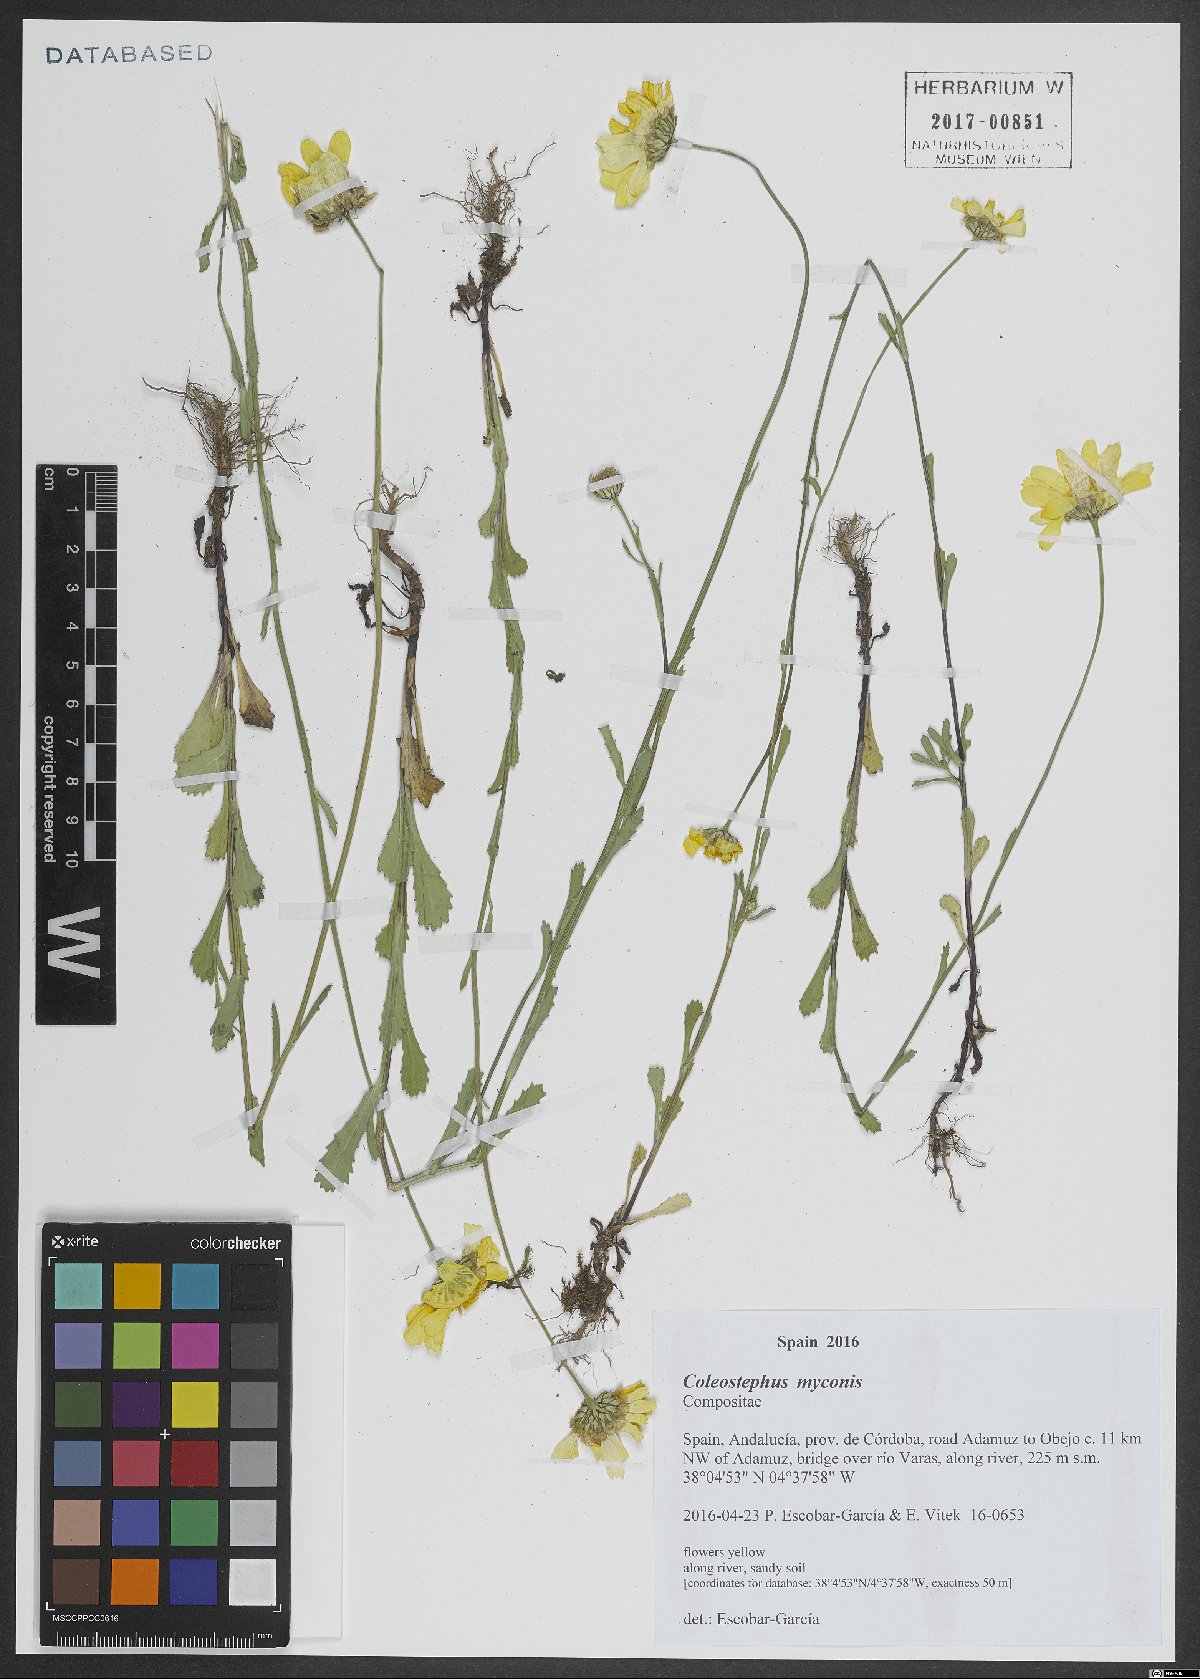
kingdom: Plantae
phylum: Tracheophyta
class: Magnoliopsida
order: Asterales
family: Asteraceae
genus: Coleostephus
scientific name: Coleostephus myconis
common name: Mediterranean marigold
